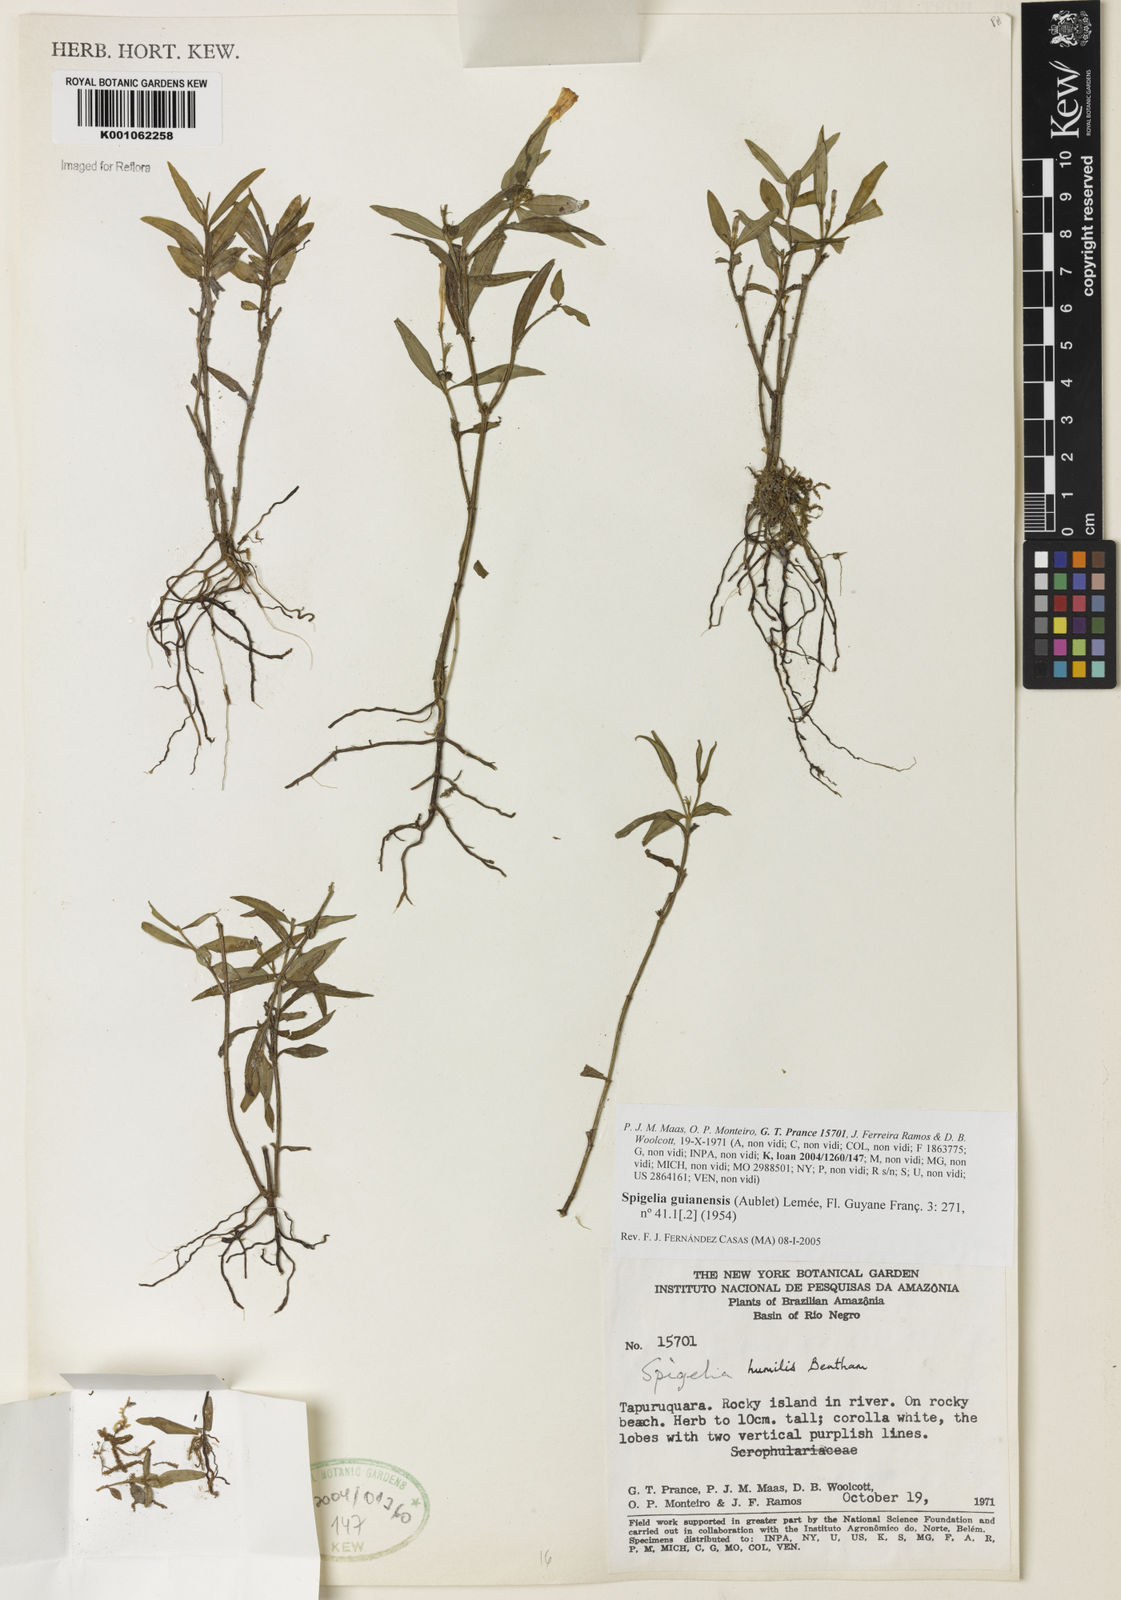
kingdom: Plantae
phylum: Tracheophyta
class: Magnoliopsida
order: Gentianales
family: Loganiaceae
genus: Spigelia
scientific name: Spigelia
